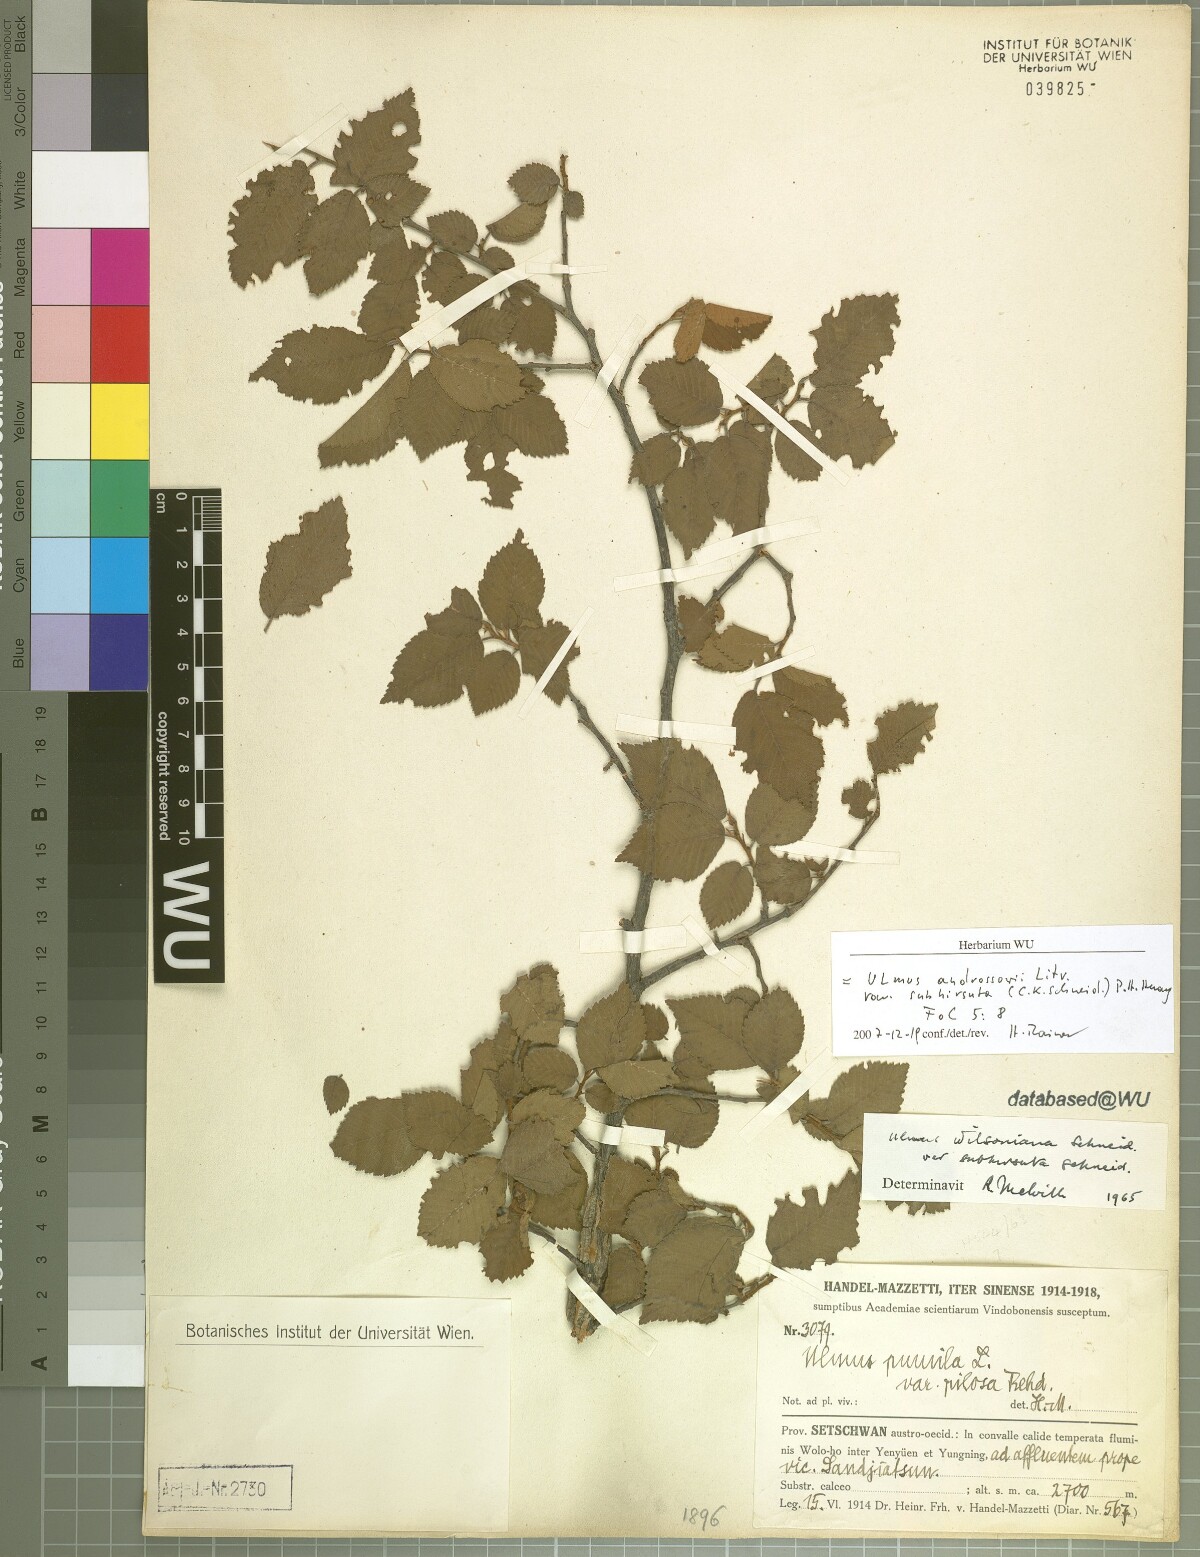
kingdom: Plantae
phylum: Tracheophyta
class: Magnoliopsida
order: Rosales
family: Ulmaceae
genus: Ulmus
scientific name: Ulmus chumlia
